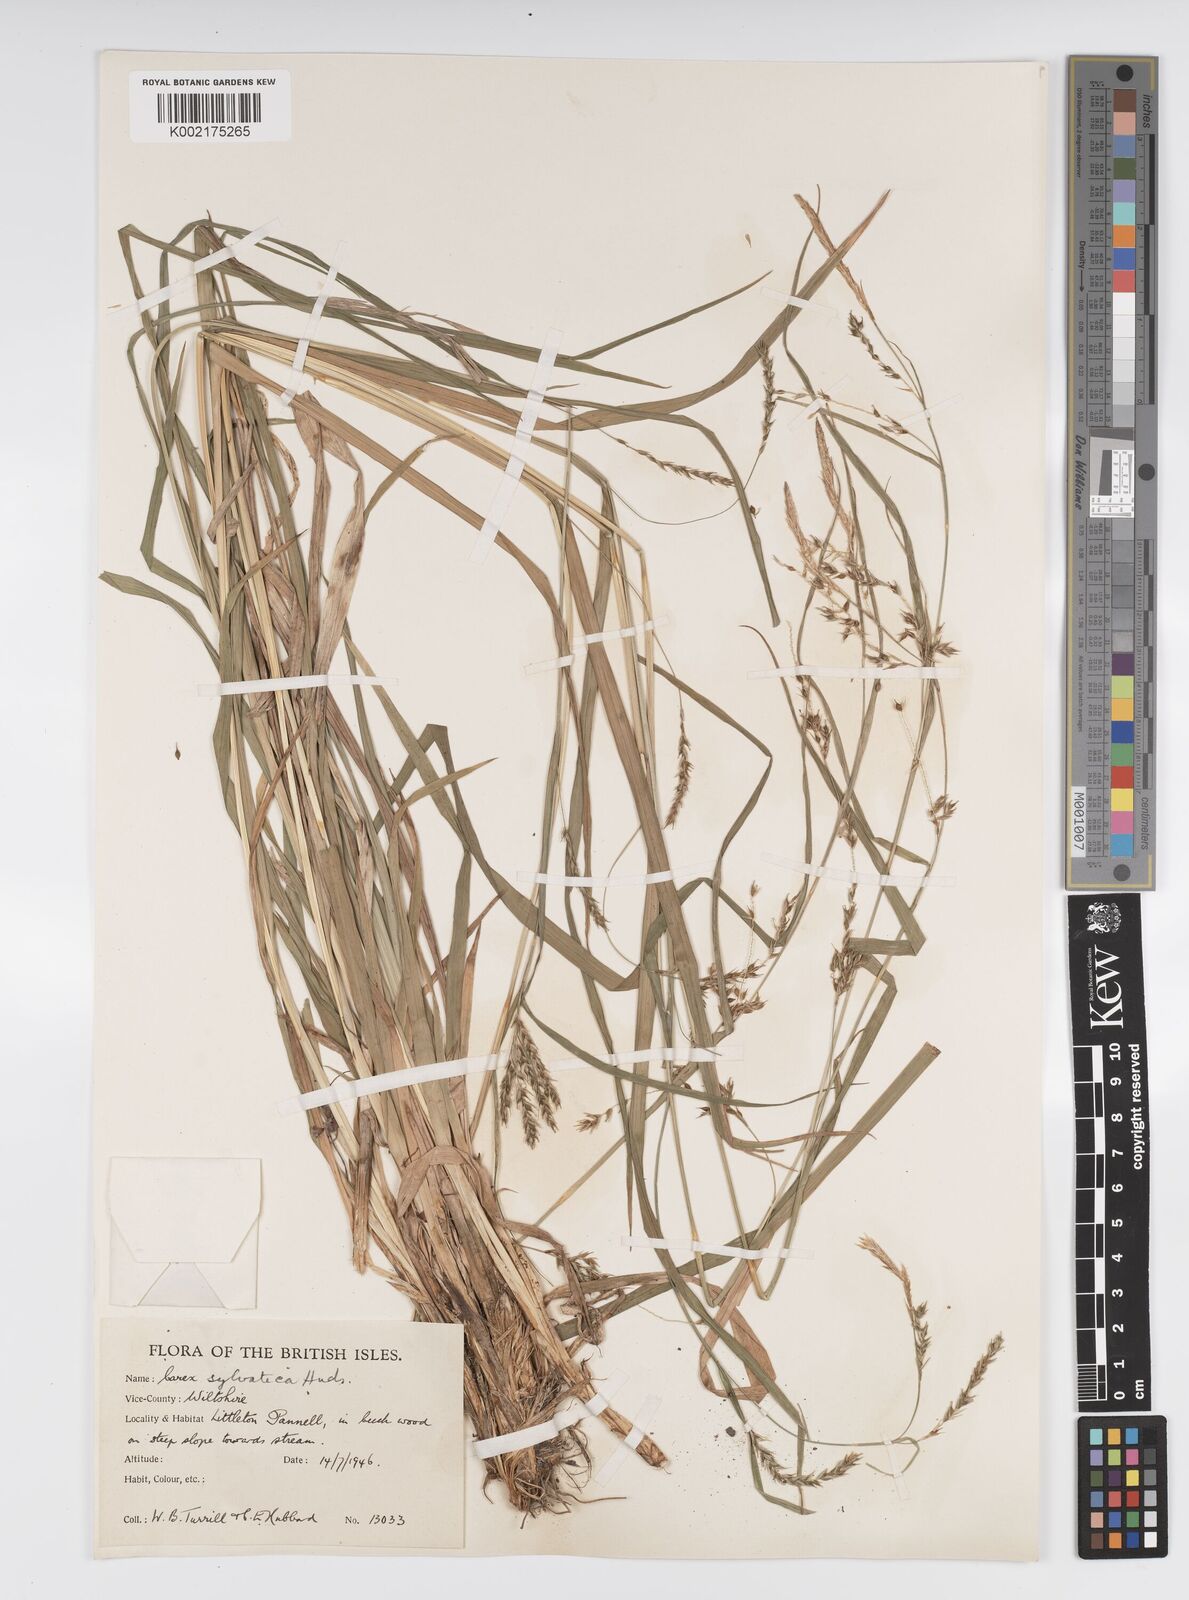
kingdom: Plantae
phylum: Tracheophyta
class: Liliopsida
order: Poales
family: Cyperaceae
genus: Carex
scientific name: Carex sylvatica
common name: Wood-sedge
